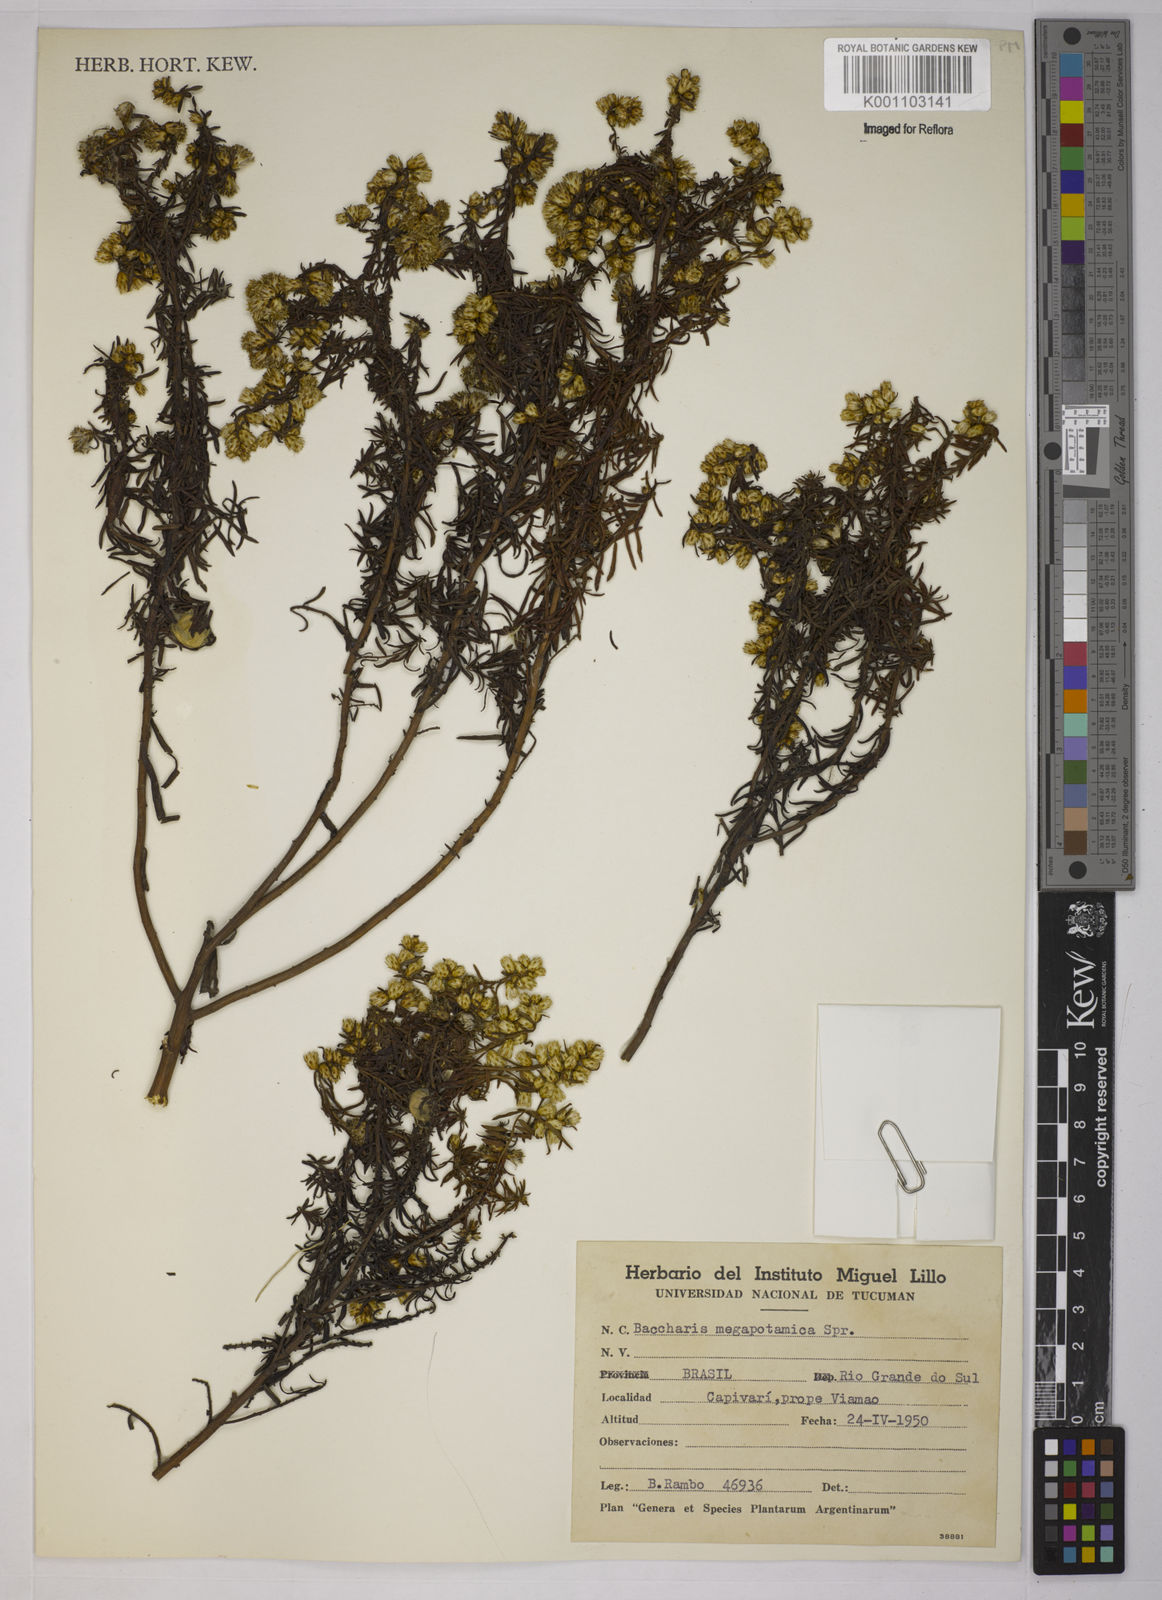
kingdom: Plantae
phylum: Tracheophyta
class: Magnoliopsida
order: Asterales
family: Asteraceae
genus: Baccharis
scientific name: Baccharis megapotamica
